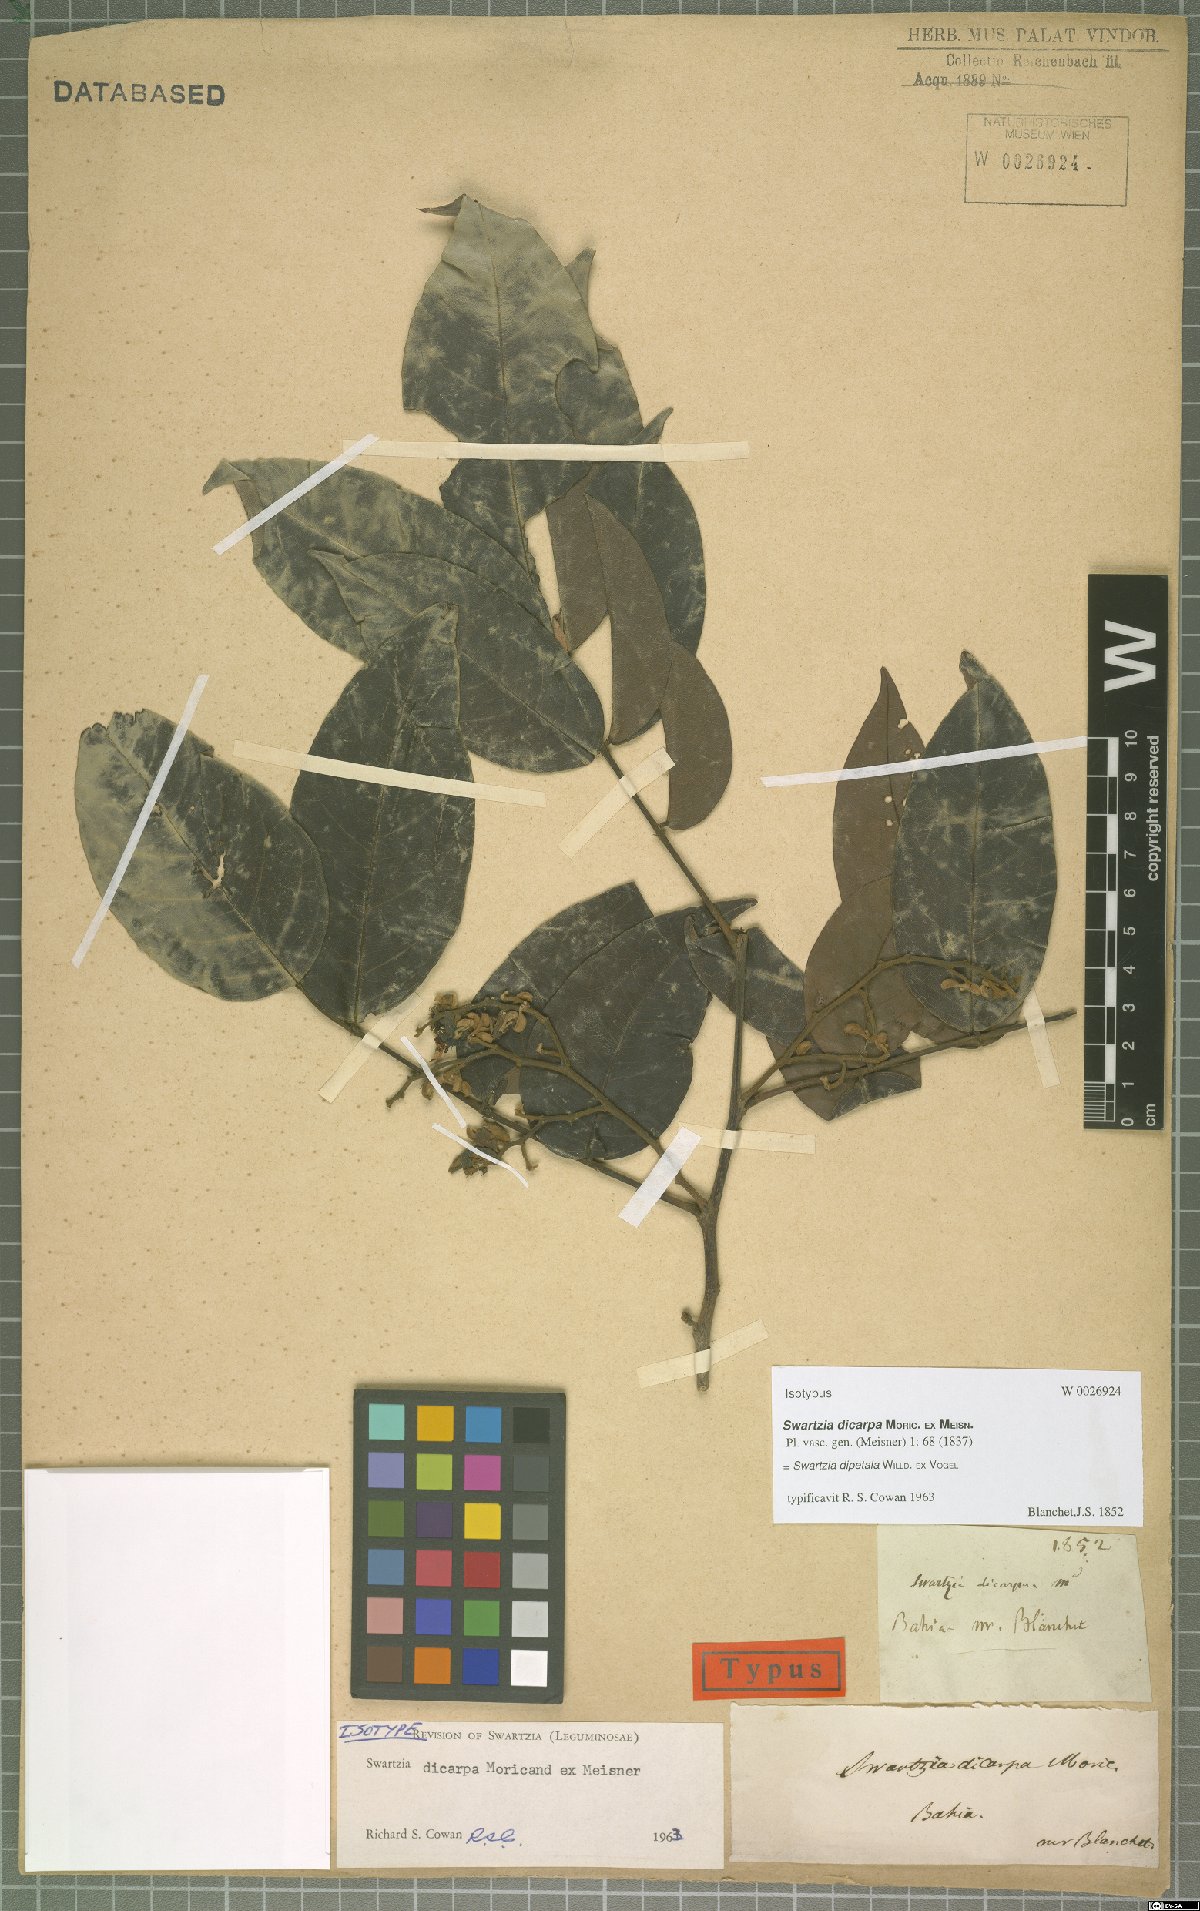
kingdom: Plantae
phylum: Tracheophyta
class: Magnoliopsida
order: Fabales
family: Fabaceae
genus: Swartzia
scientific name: Swartzia dipetala
